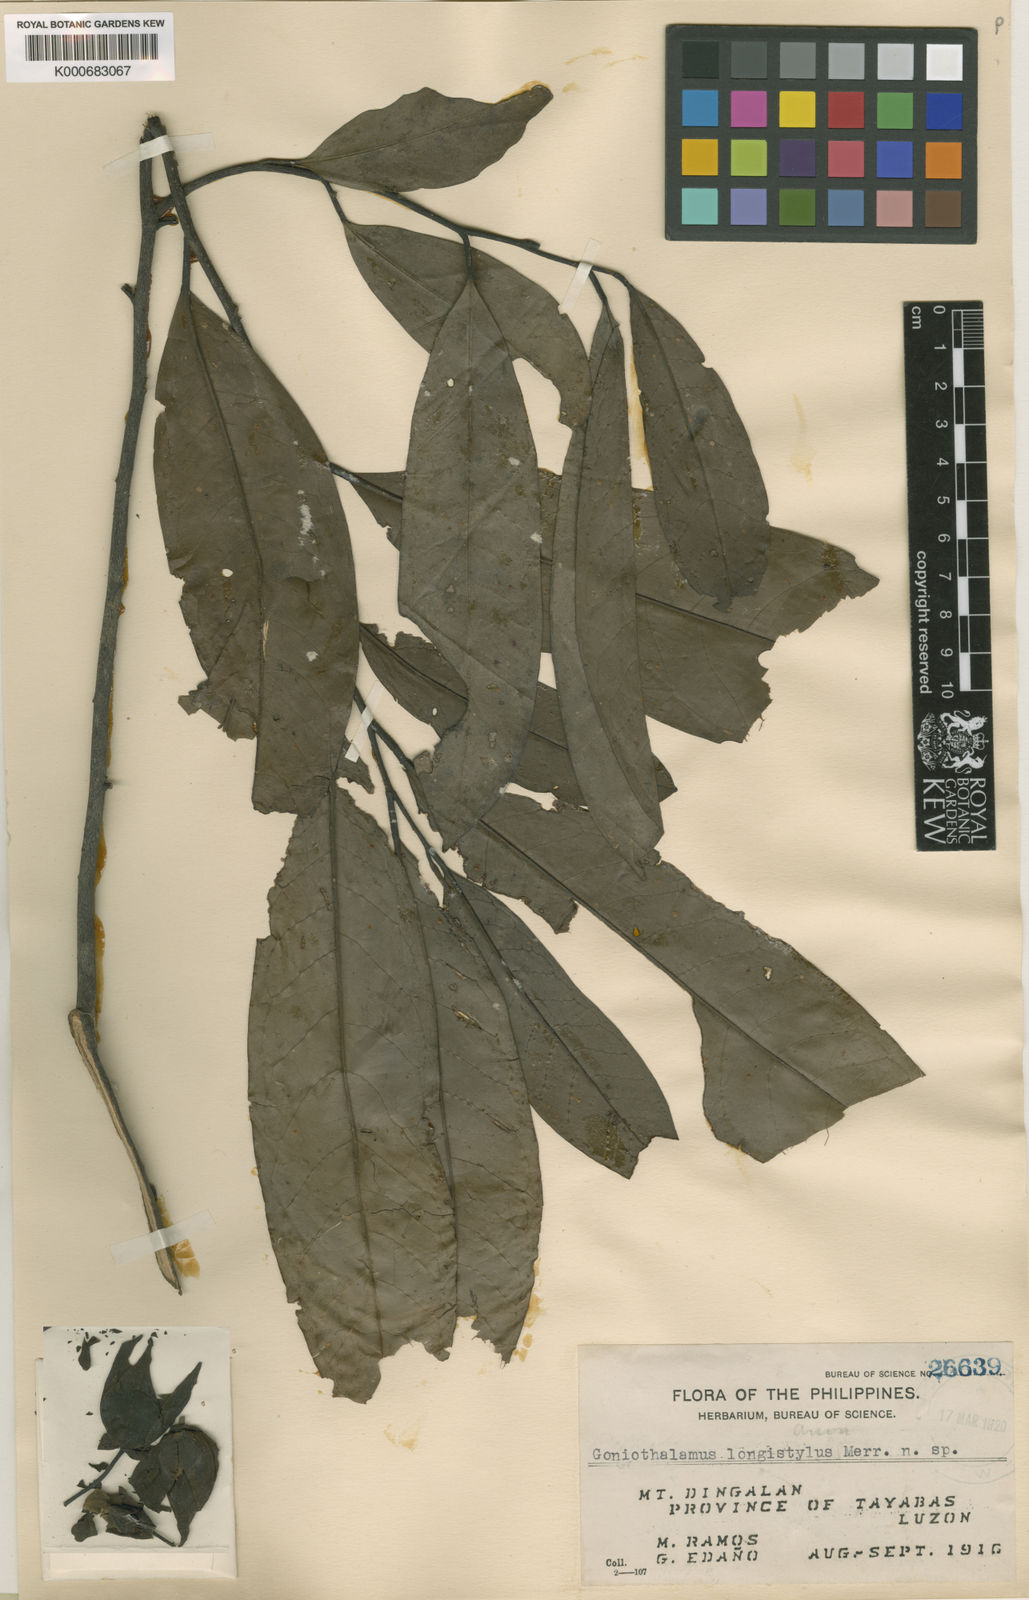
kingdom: Plantae
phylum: Tracheophyta
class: Magnoliopsida
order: Magnoliales
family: Annonaceae
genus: Goniothalamus
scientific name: Goniothalamus longistylus
